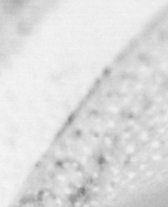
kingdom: Animalia
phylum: Chordata
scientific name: Chordata
